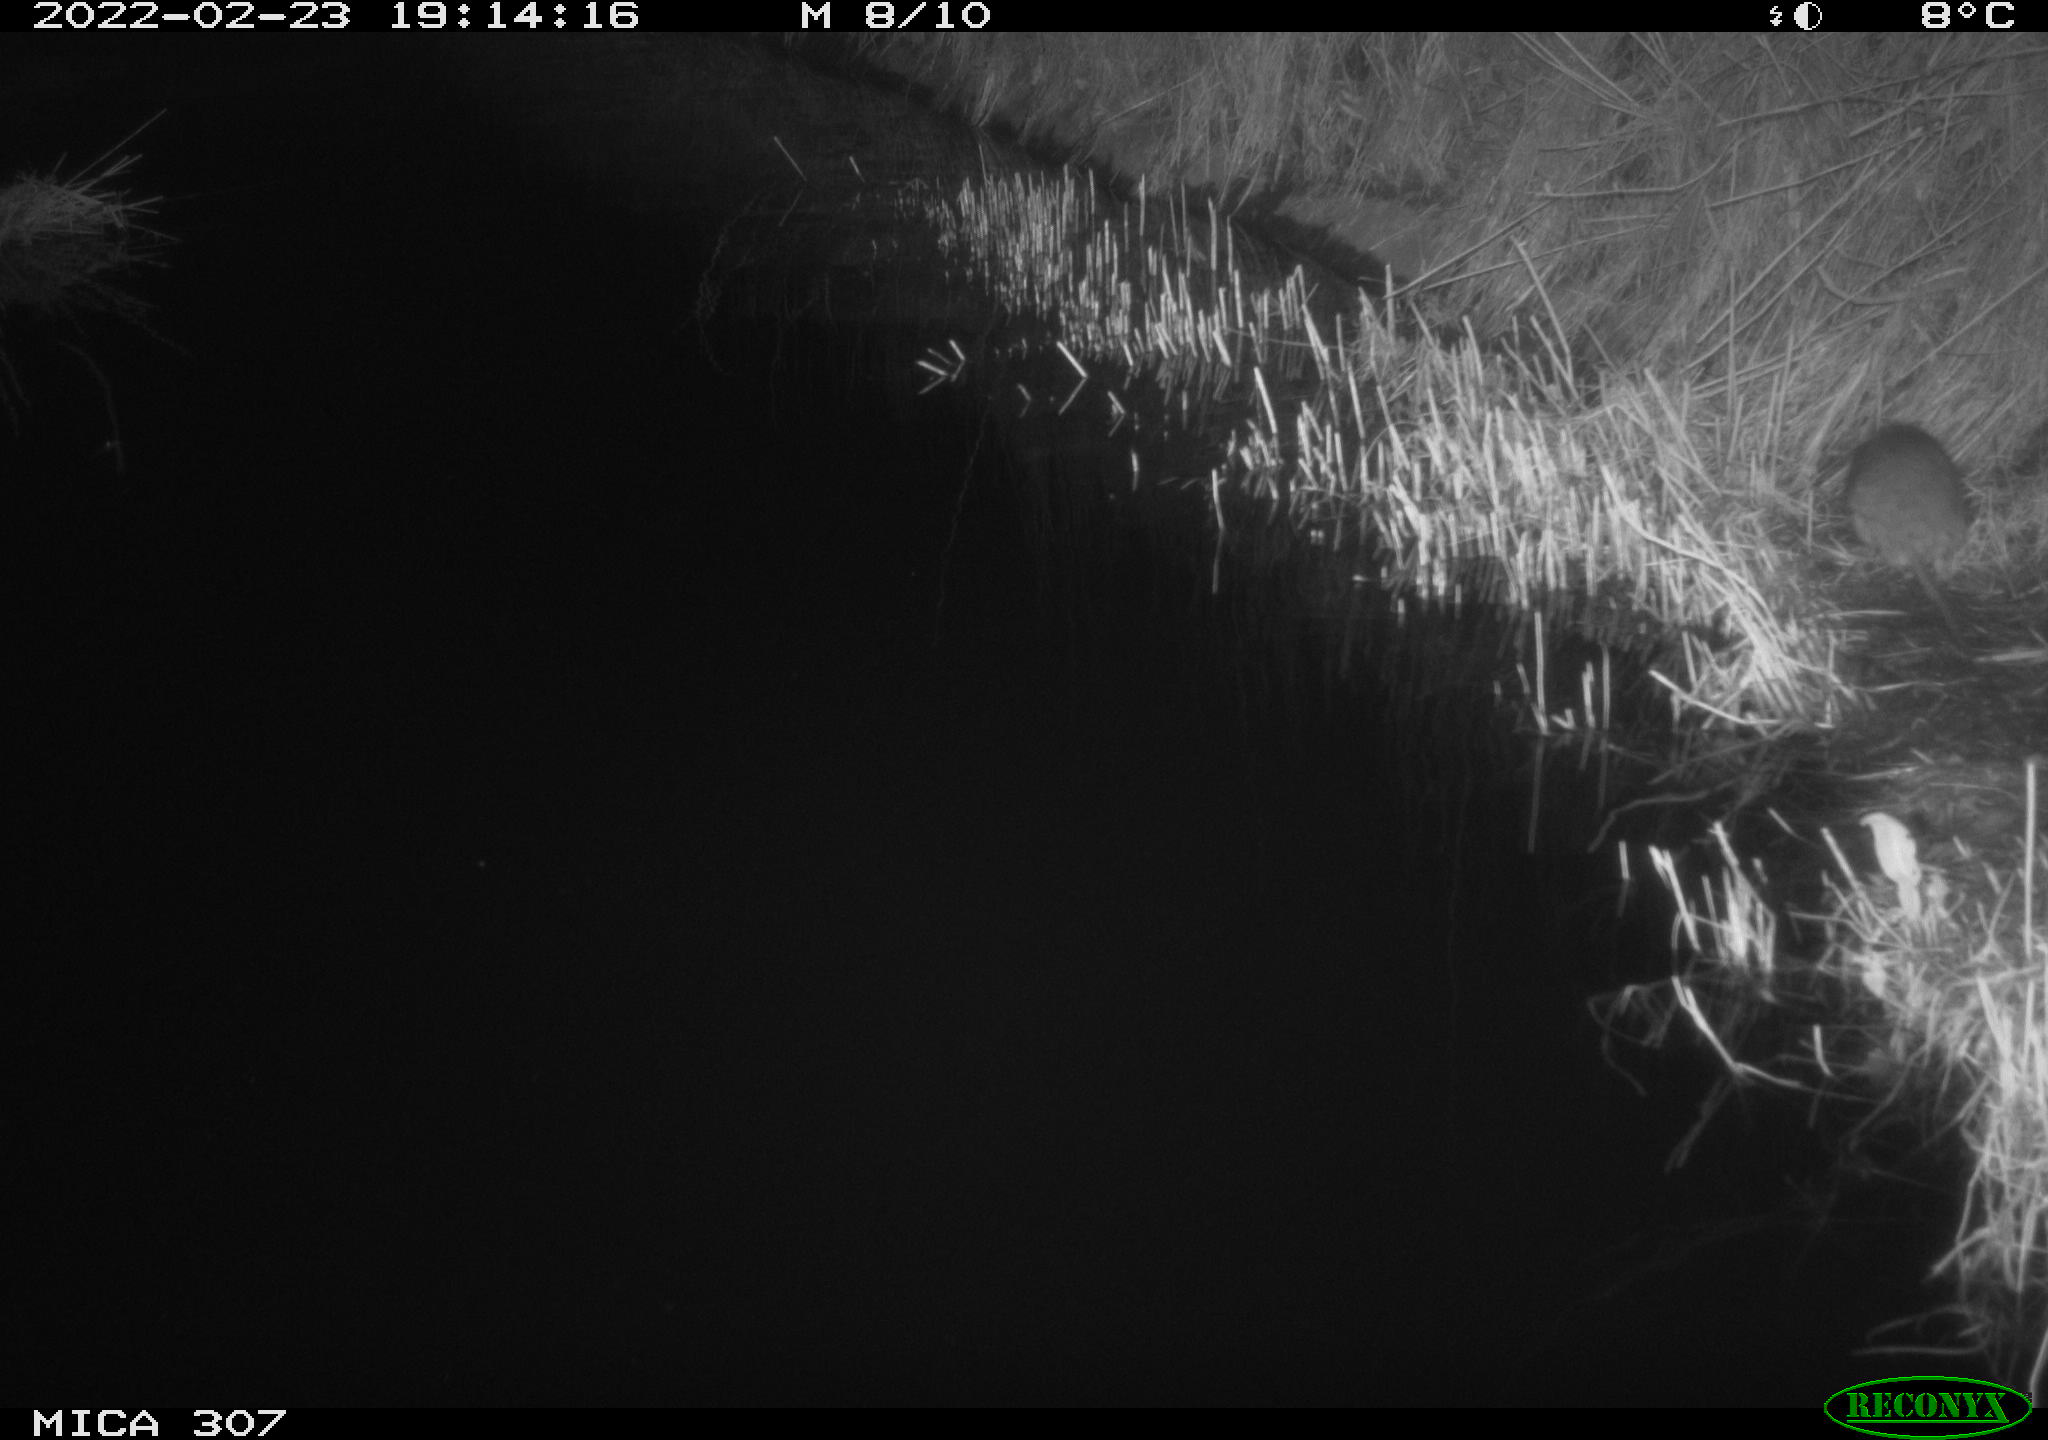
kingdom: Animalia
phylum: Chordata
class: Mammalia
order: Rodentia
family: Muridae
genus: Rattus
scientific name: Rattus norvegicus
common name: Brown rat
